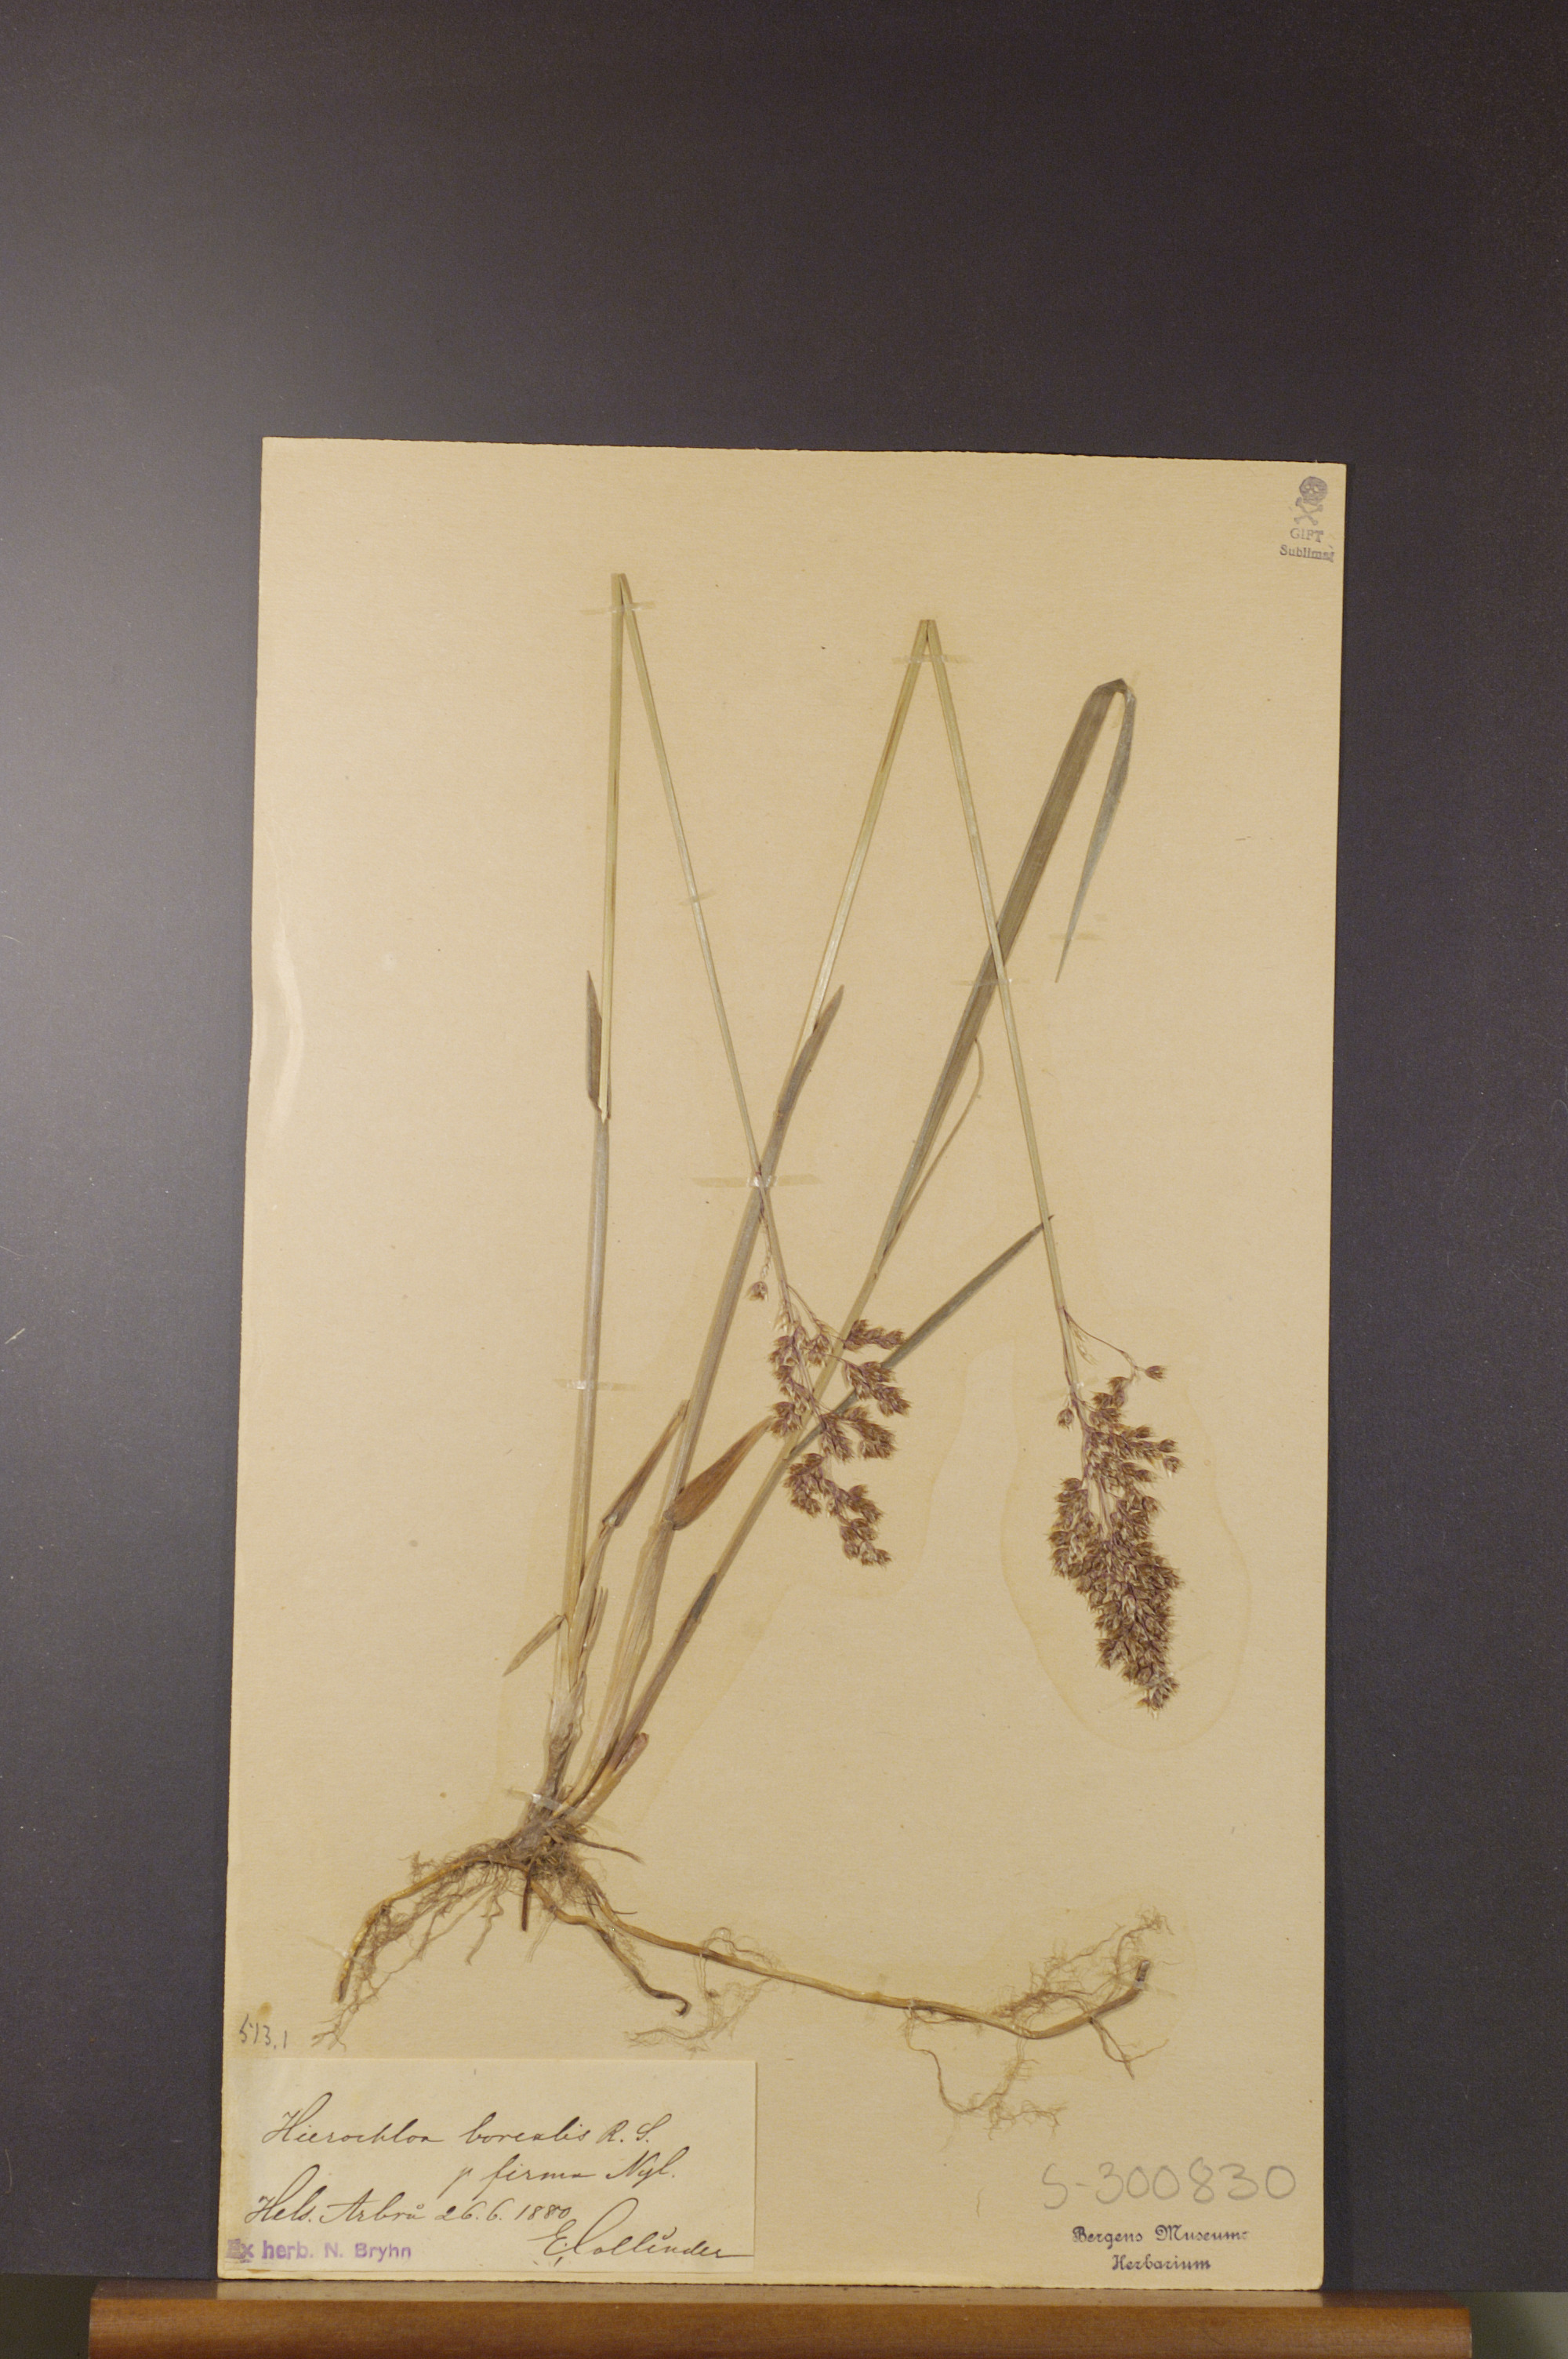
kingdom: Plantae
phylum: Tracheophyta
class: Liliopsida
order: Poales
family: Poaceae
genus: Anthoxanthum
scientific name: Anthoxanthum nitens
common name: Holy grass
